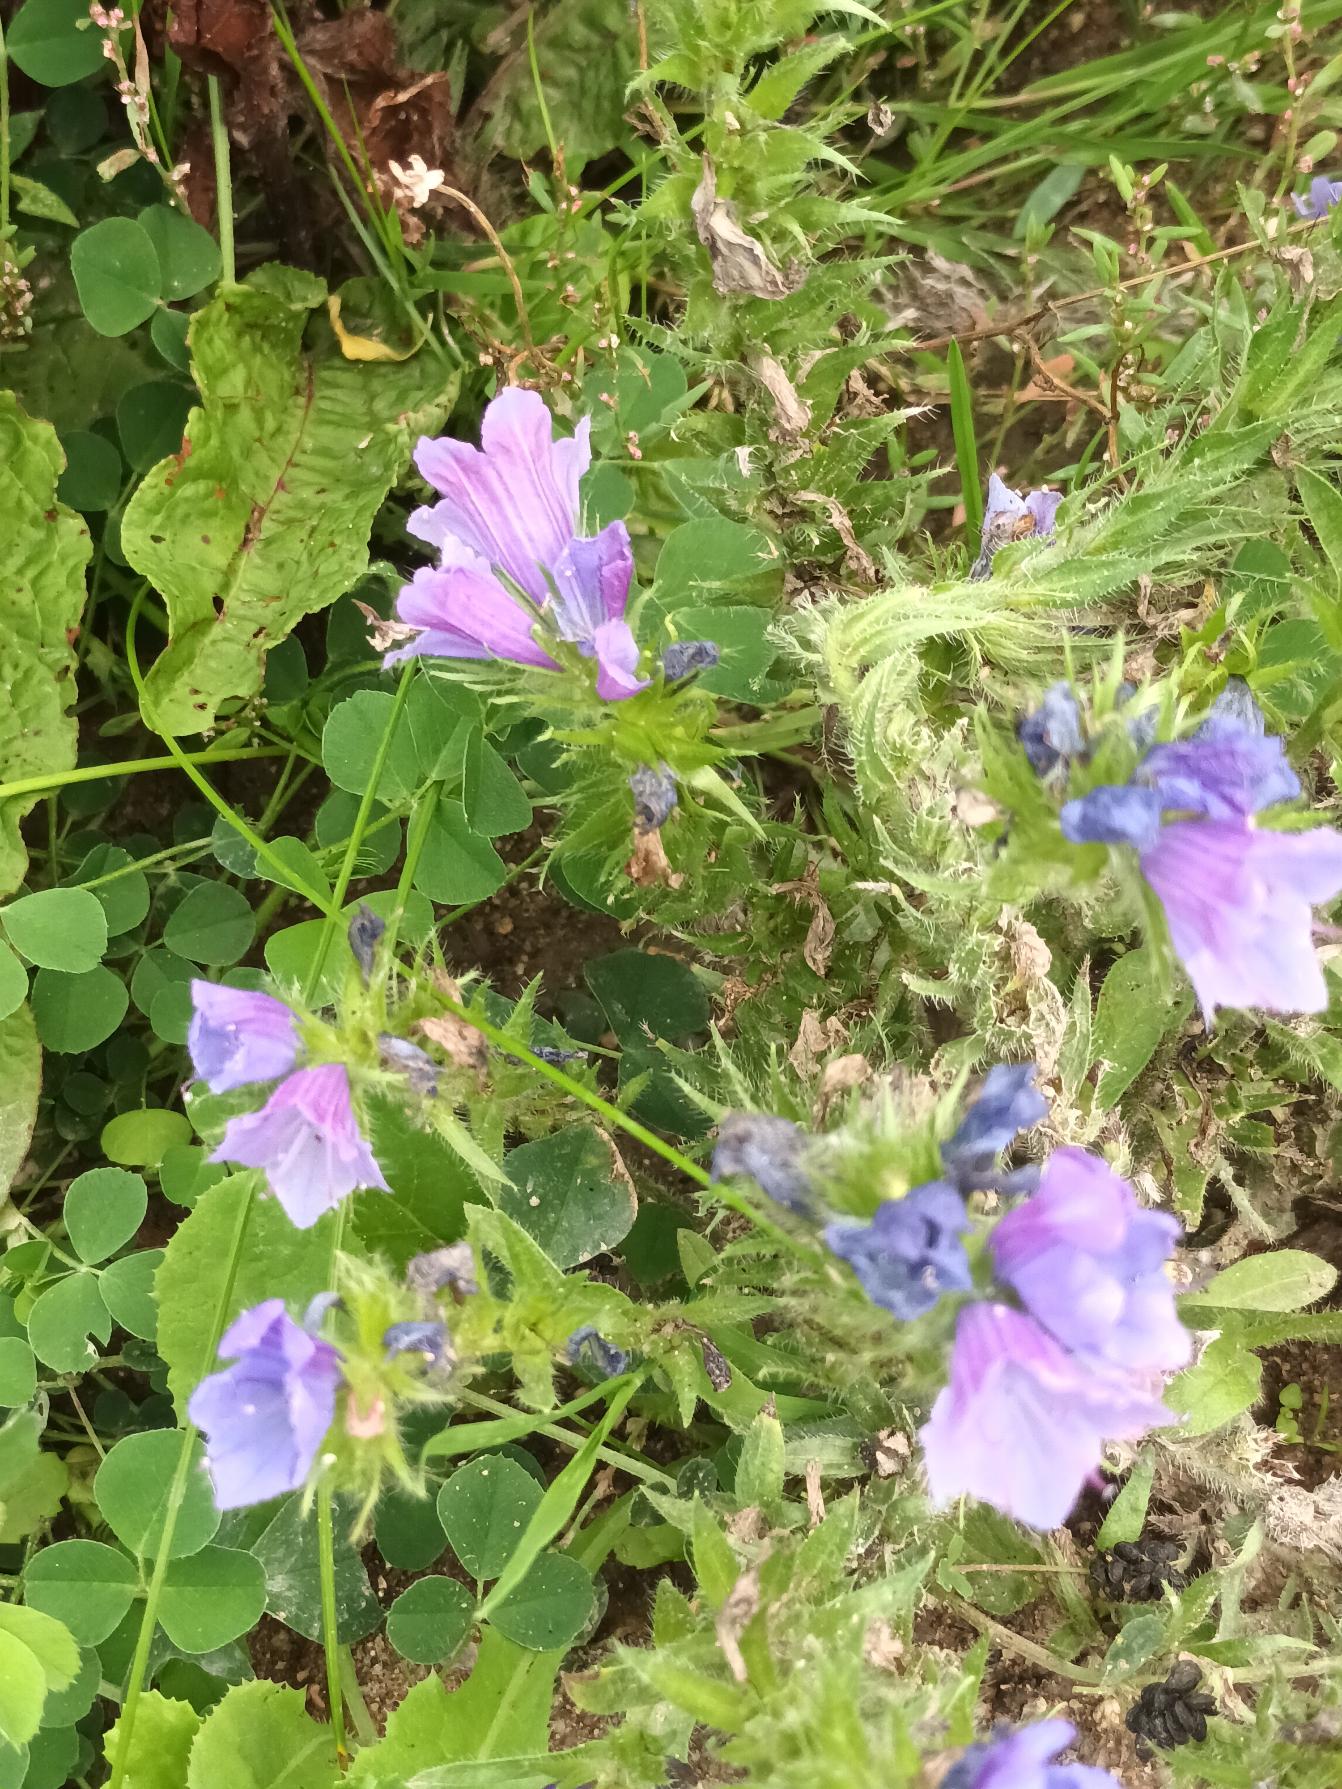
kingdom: Plantae
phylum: Tracheophyta
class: Magnoliopsida
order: Boraginales
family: Boraginaceae
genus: Echium
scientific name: Echium plantagineum
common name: Vejbred-slangehoved
